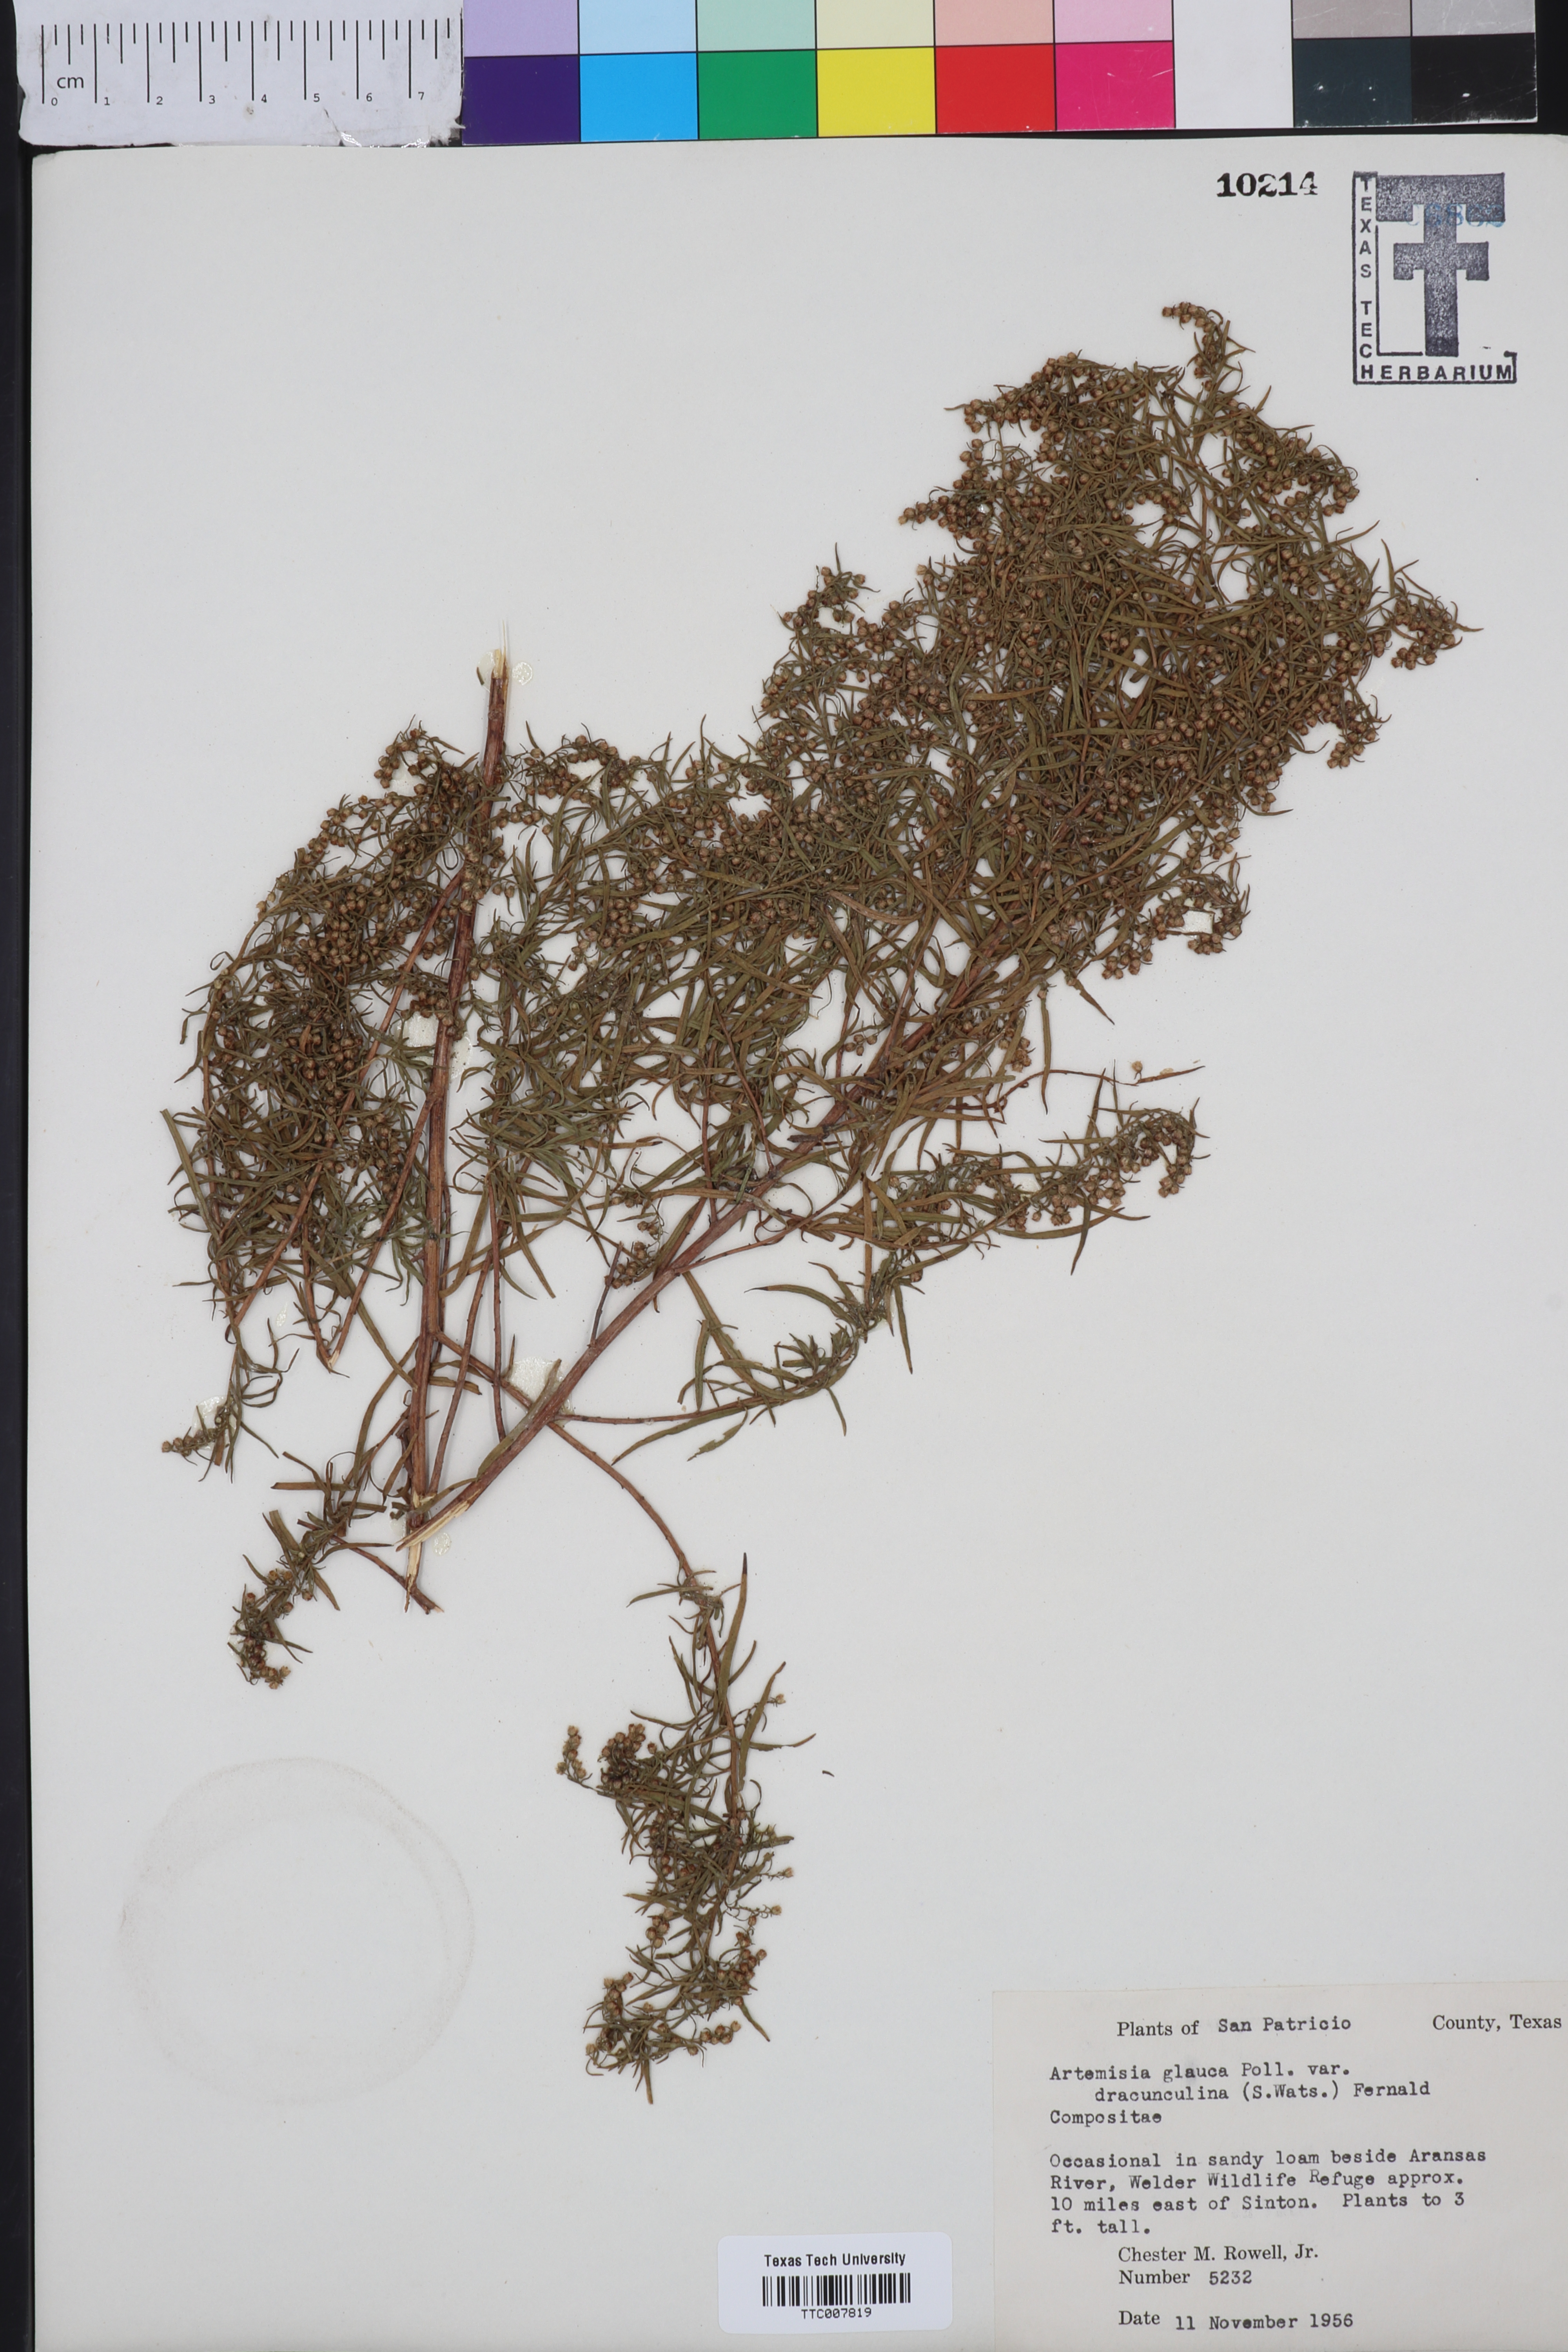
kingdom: Plantae
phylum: Tracheophyta
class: Magnoliopsida
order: Asterales
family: Asteraceae
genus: Artemisia
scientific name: Artemisia dracunculus
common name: Tarragon
